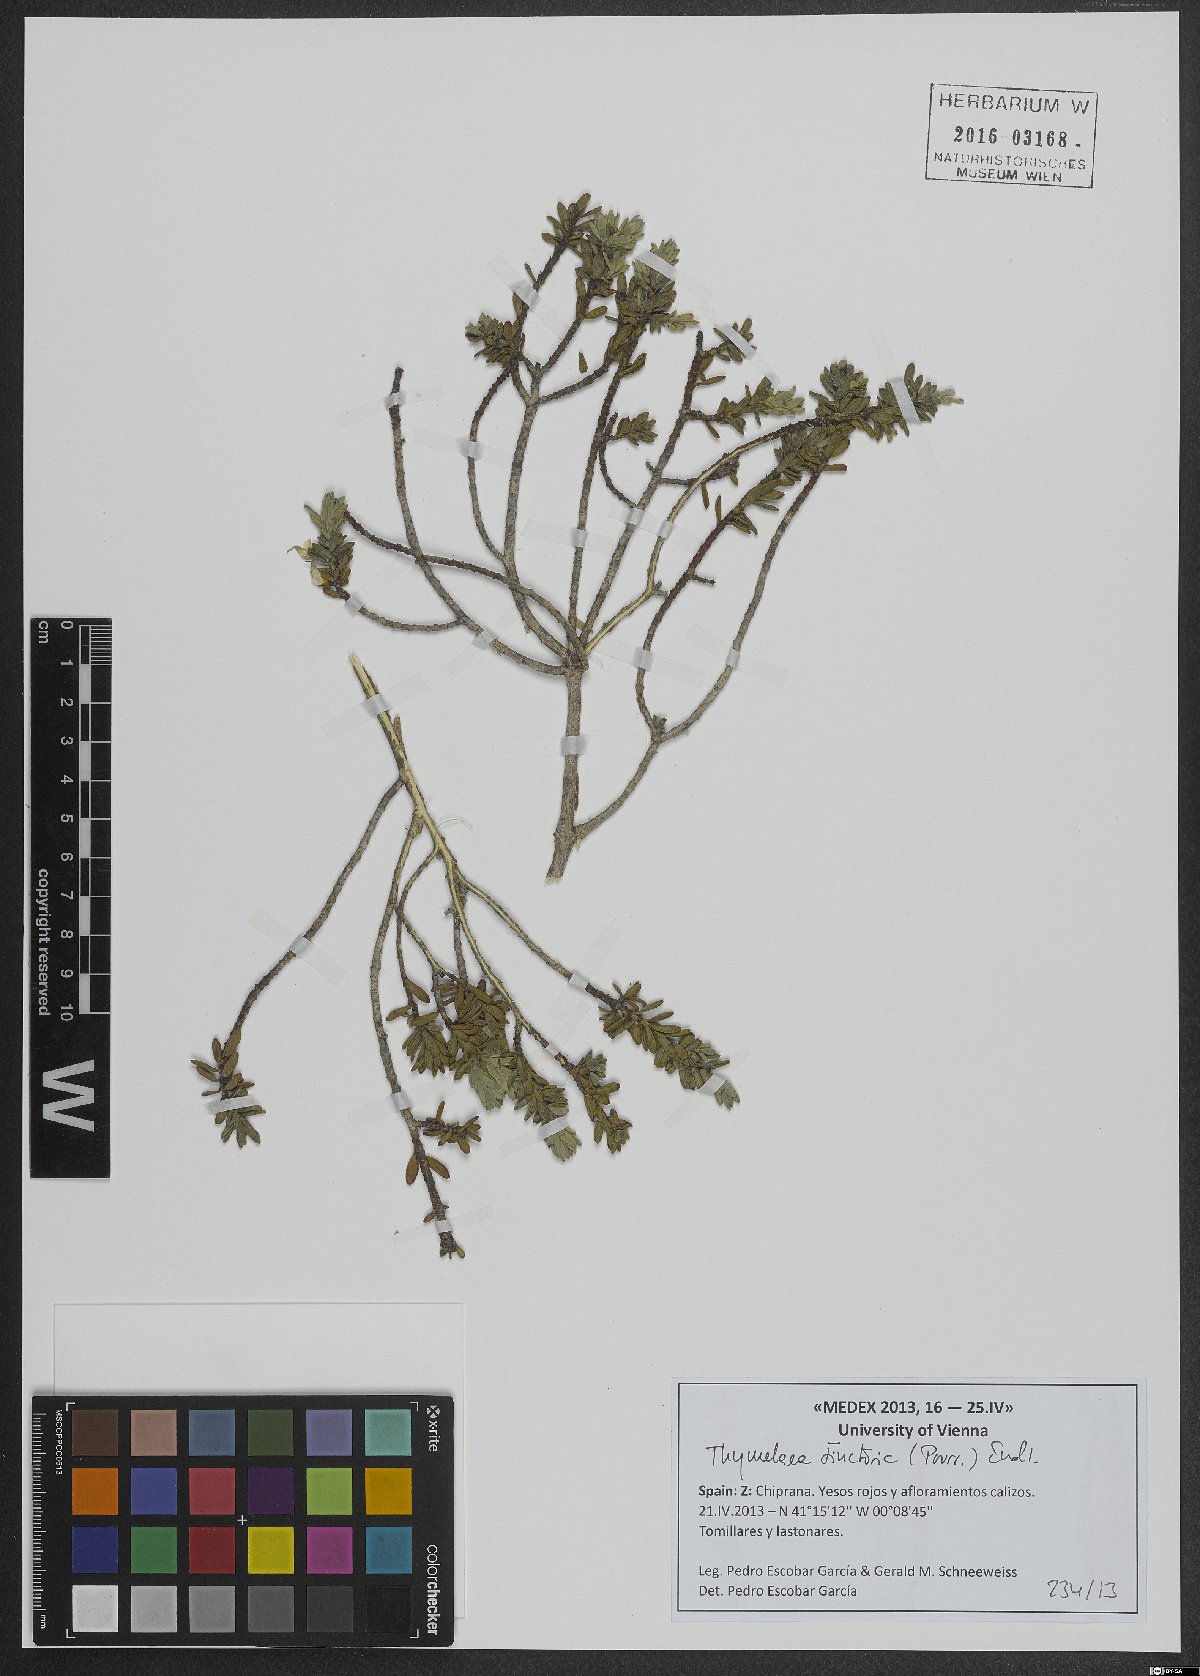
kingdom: Plantae
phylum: Tracheophyta
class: Magnoliopsida
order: Malvales
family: Thymelaeaceae
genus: Thymelaea
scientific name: Thymelaea tinctoria
